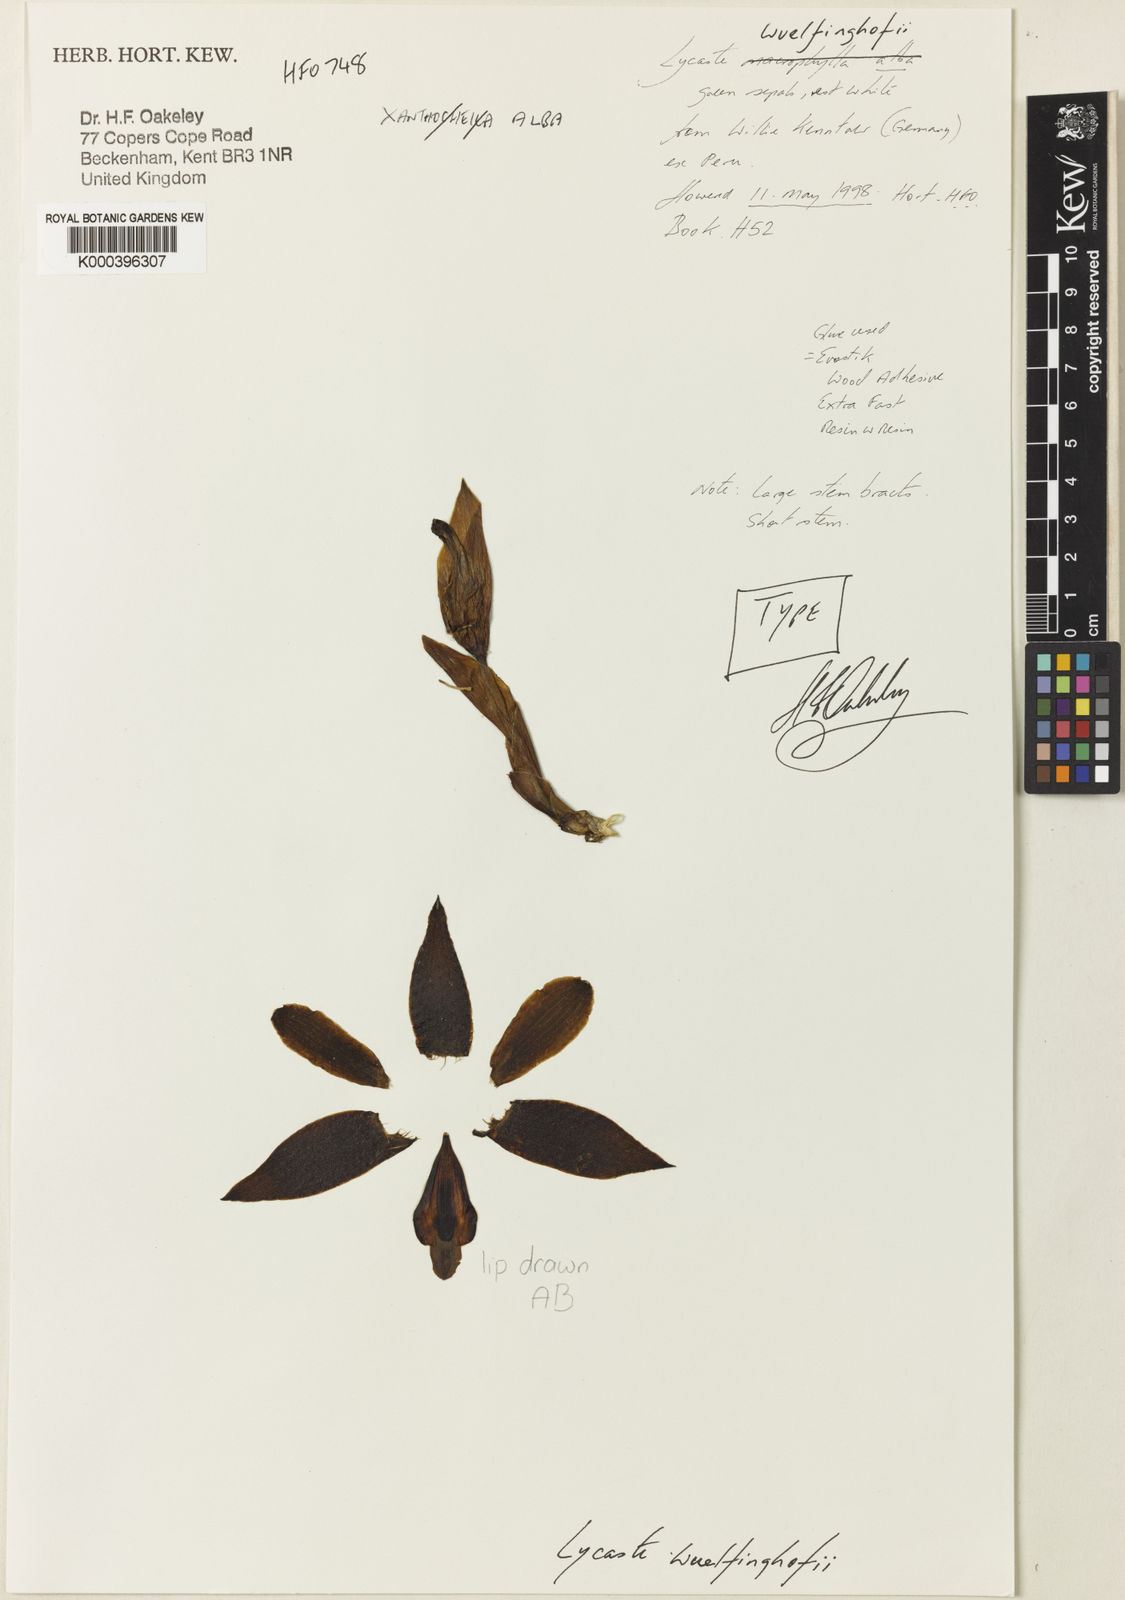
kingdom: Plantae
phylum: Tracheophyta
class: Liliopsida
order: Asparagales
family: Orchidaceae
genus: Lycaste
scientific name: Lycaste
